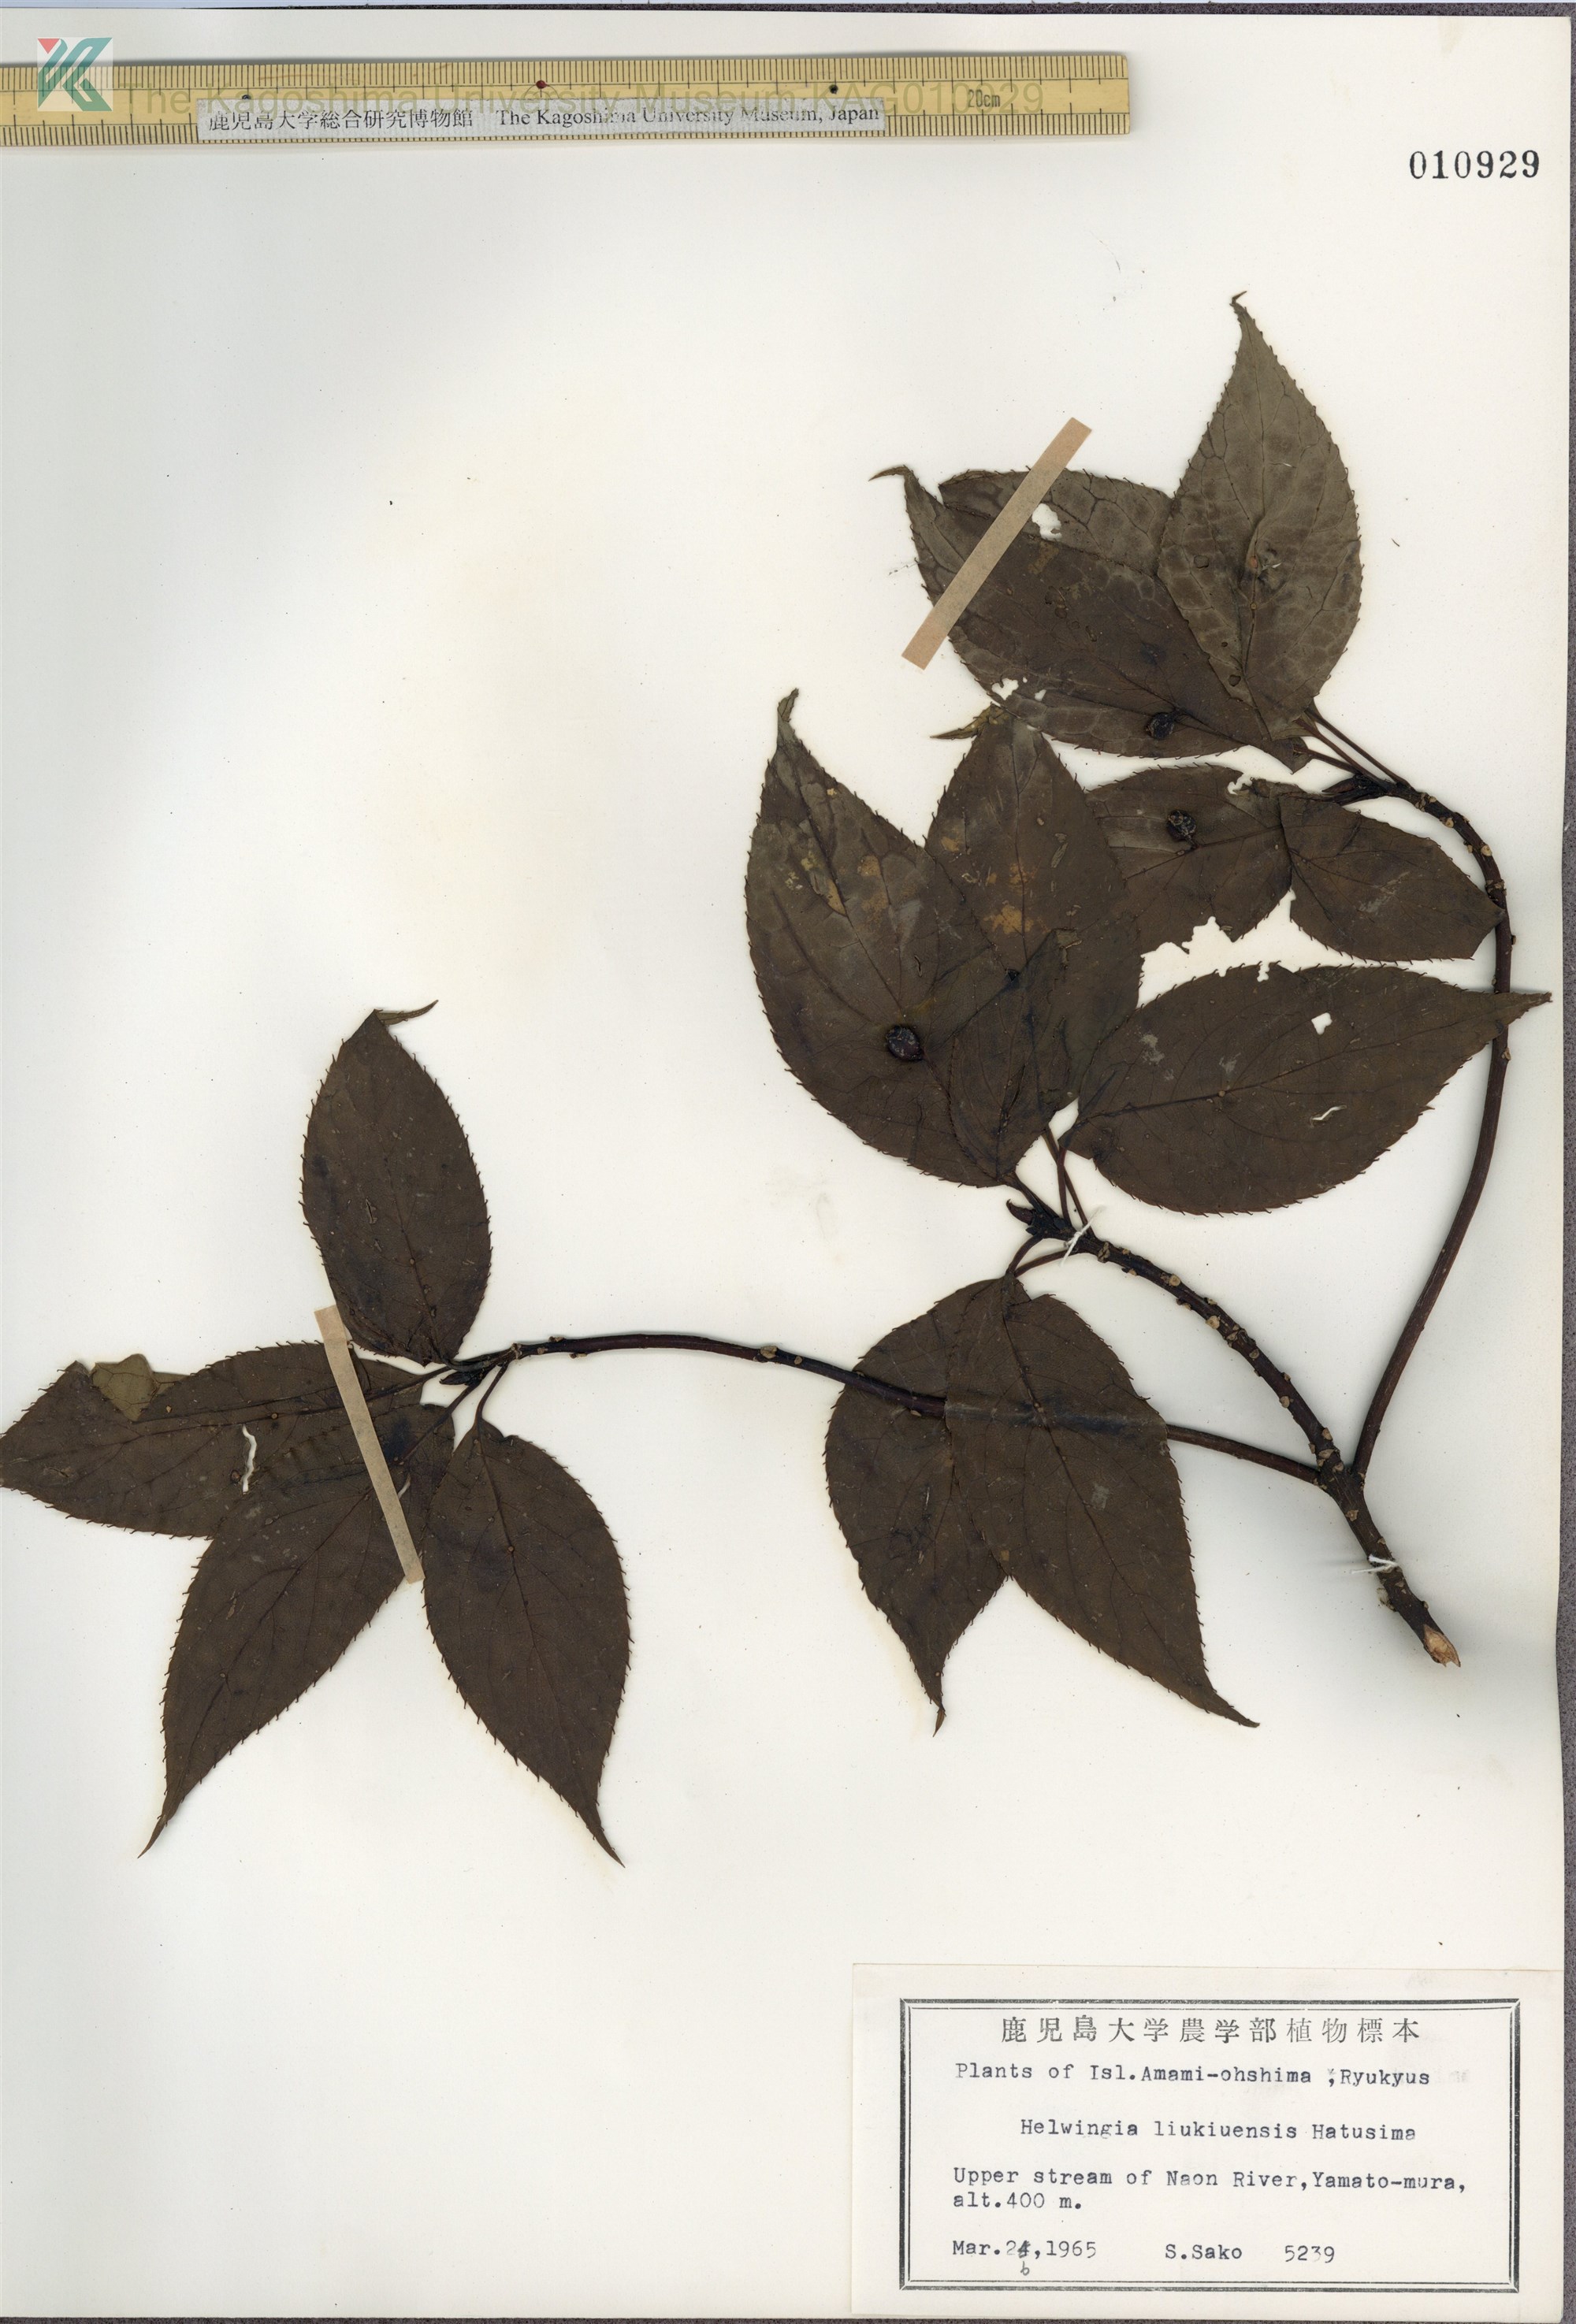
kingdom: Plantae
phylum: Tracheophyta
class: Magnoliopsida
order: Aquifoliales
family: Helwingiaceae
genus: Helwingia
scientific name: Helwingia japonica
